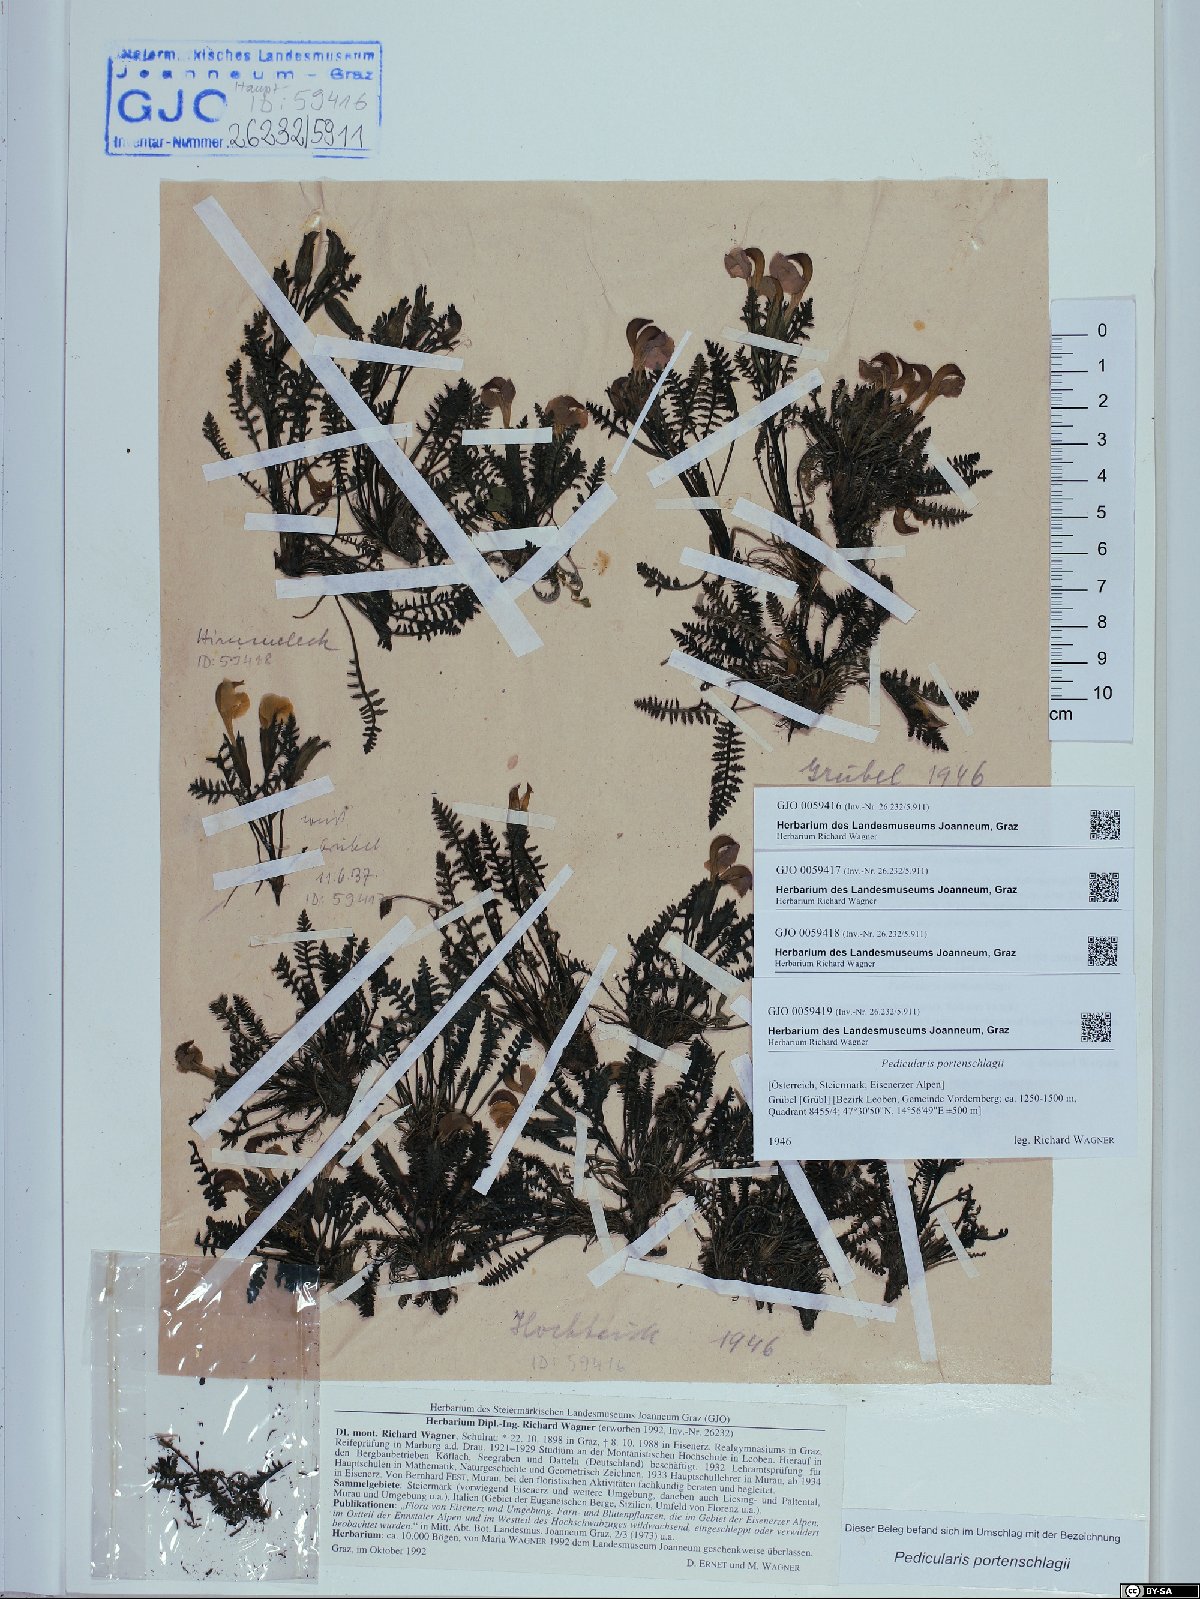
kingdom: Plantae
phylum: Tracheophyta
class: Magnoliopsida
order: Lamiales
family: Orobanchaceae
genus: Pedicularis
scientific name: Pedicularis portenschlagii
